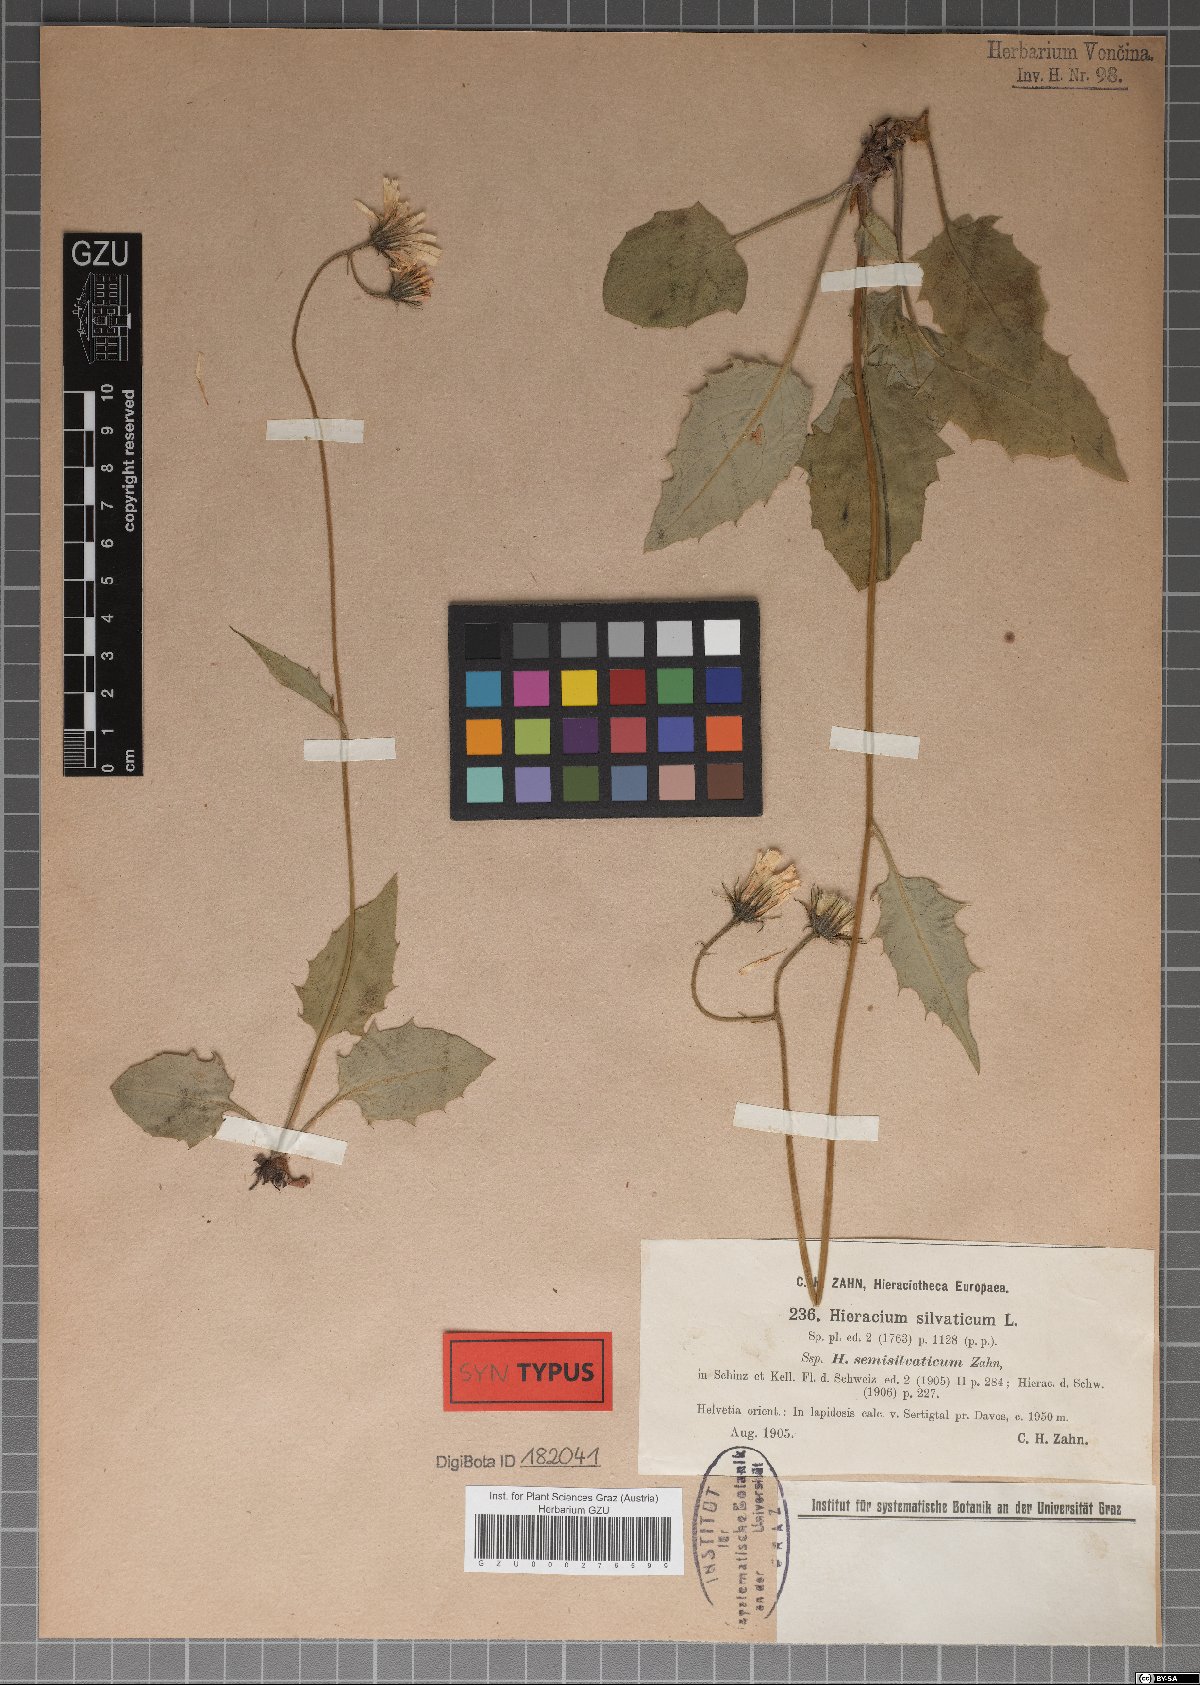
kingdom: Plantae
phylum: Tracheophyta
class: Magnoliopsida
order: Asterales
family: Asteraceae
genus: Hieracium
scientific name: Hieracium murorum
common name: Wall hawkweed
